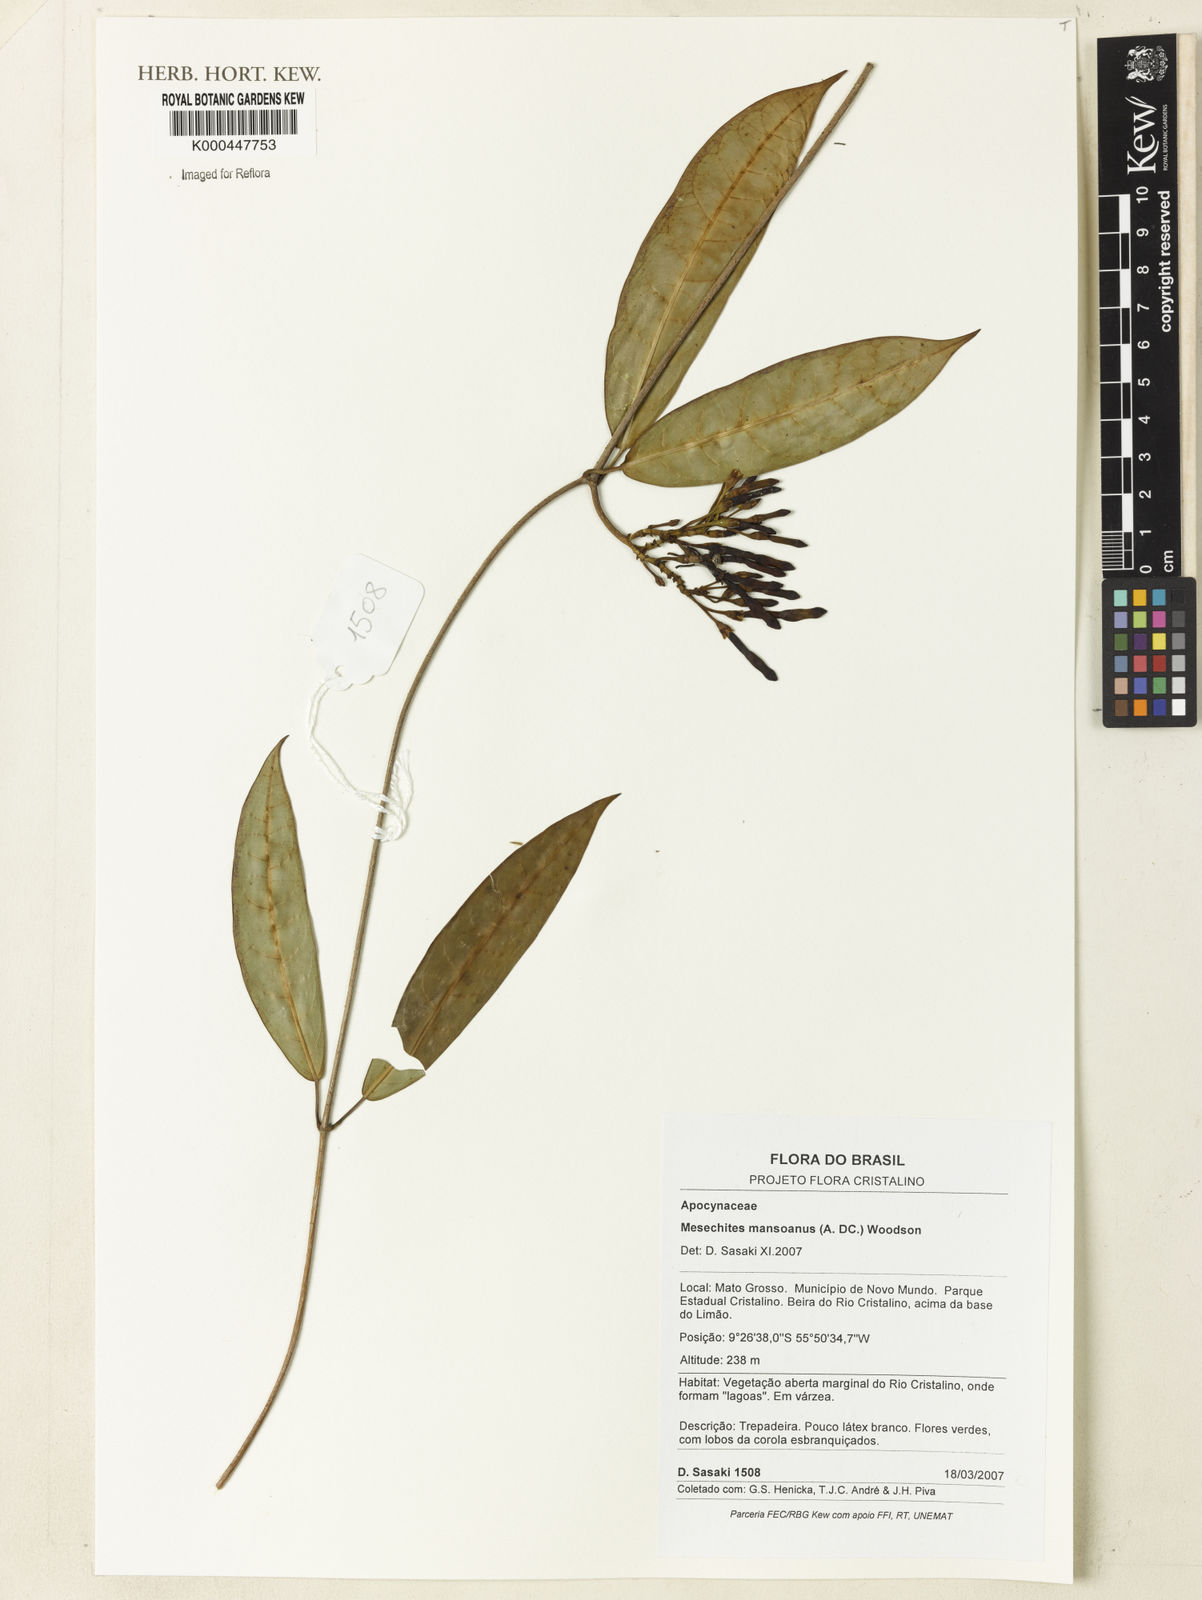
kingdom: Plantae
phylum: Tracheophyta
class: Magnoliopsida
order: Gentianales
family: Apocynaceae
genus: Mesechites
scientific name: Mesechites mansoanus
